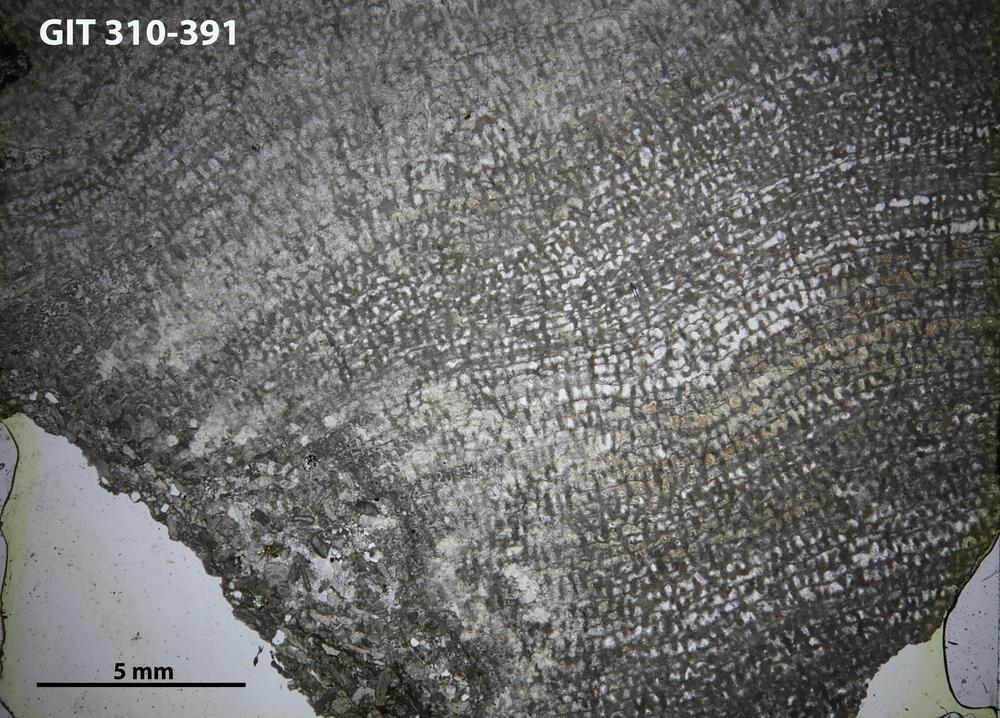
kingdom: Animalia
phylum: Porifera
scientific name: Porifera
